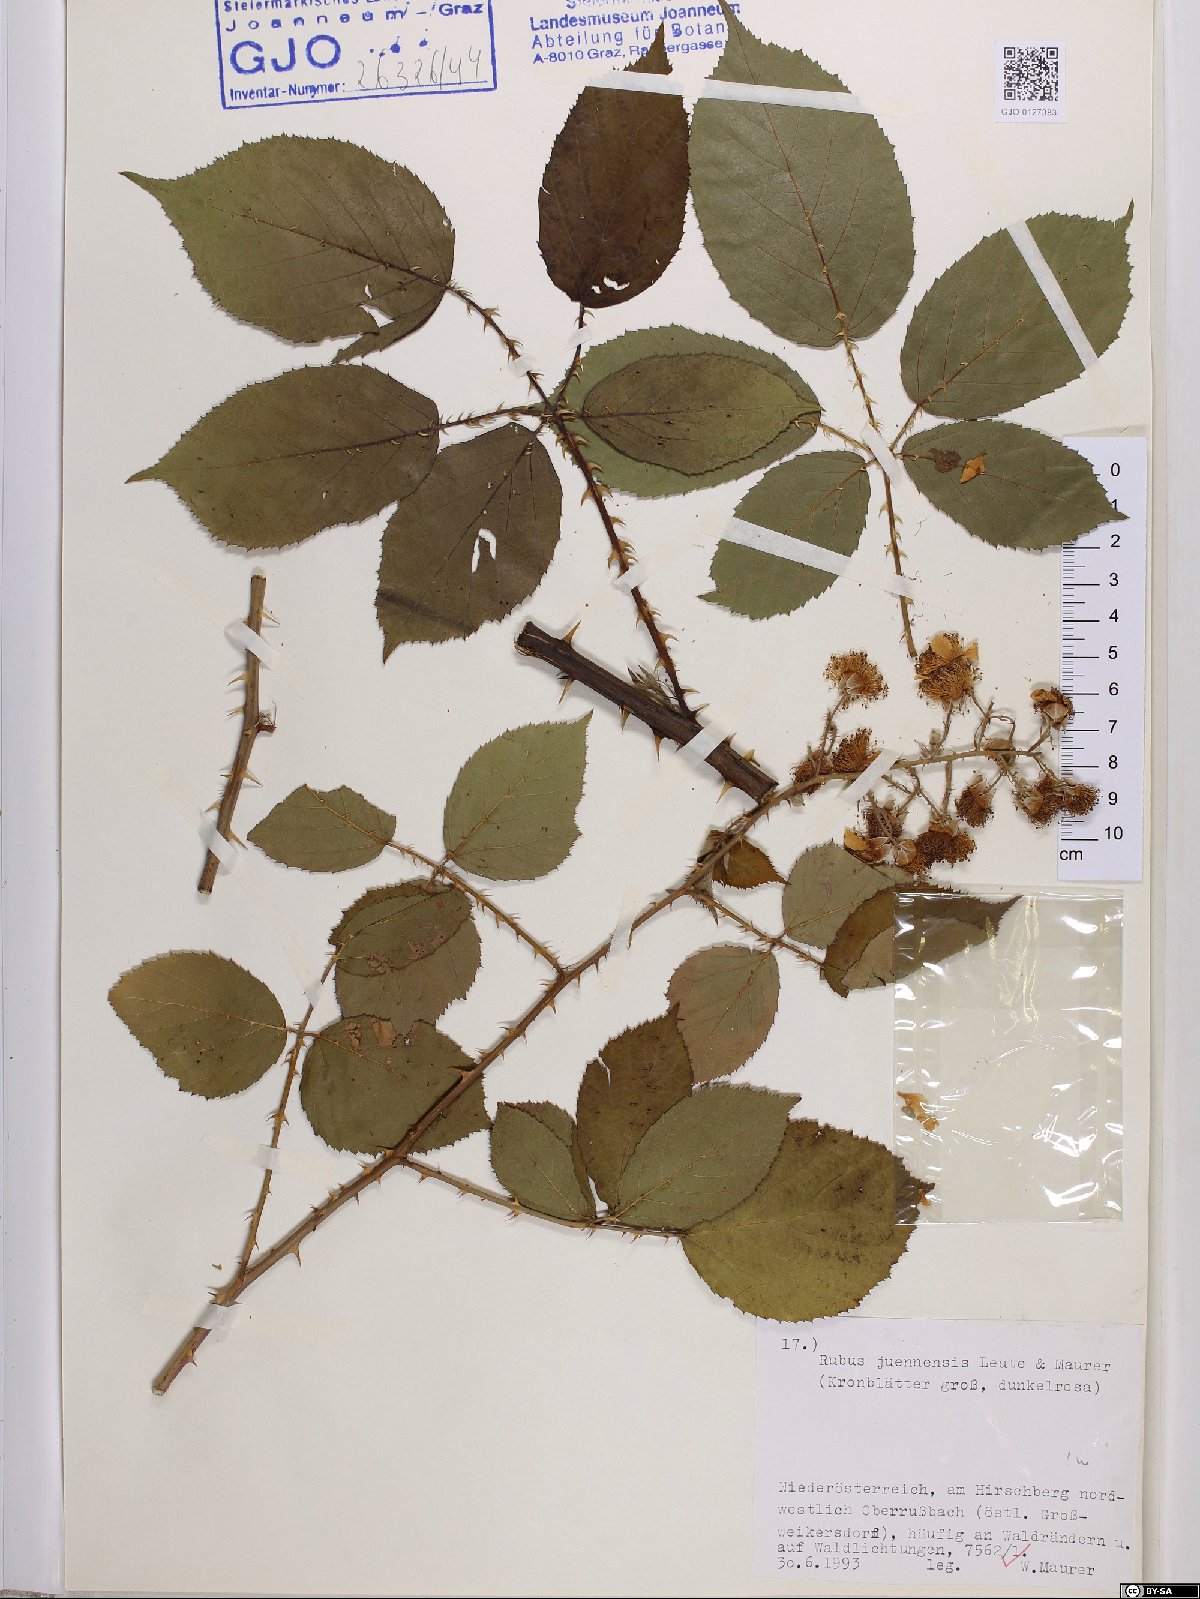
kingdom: Plantae
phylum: Tracheophyta
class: Magnoliopsida
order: Rosales
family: Rosaceae
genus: Rubus
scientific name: Rubus juennensis
